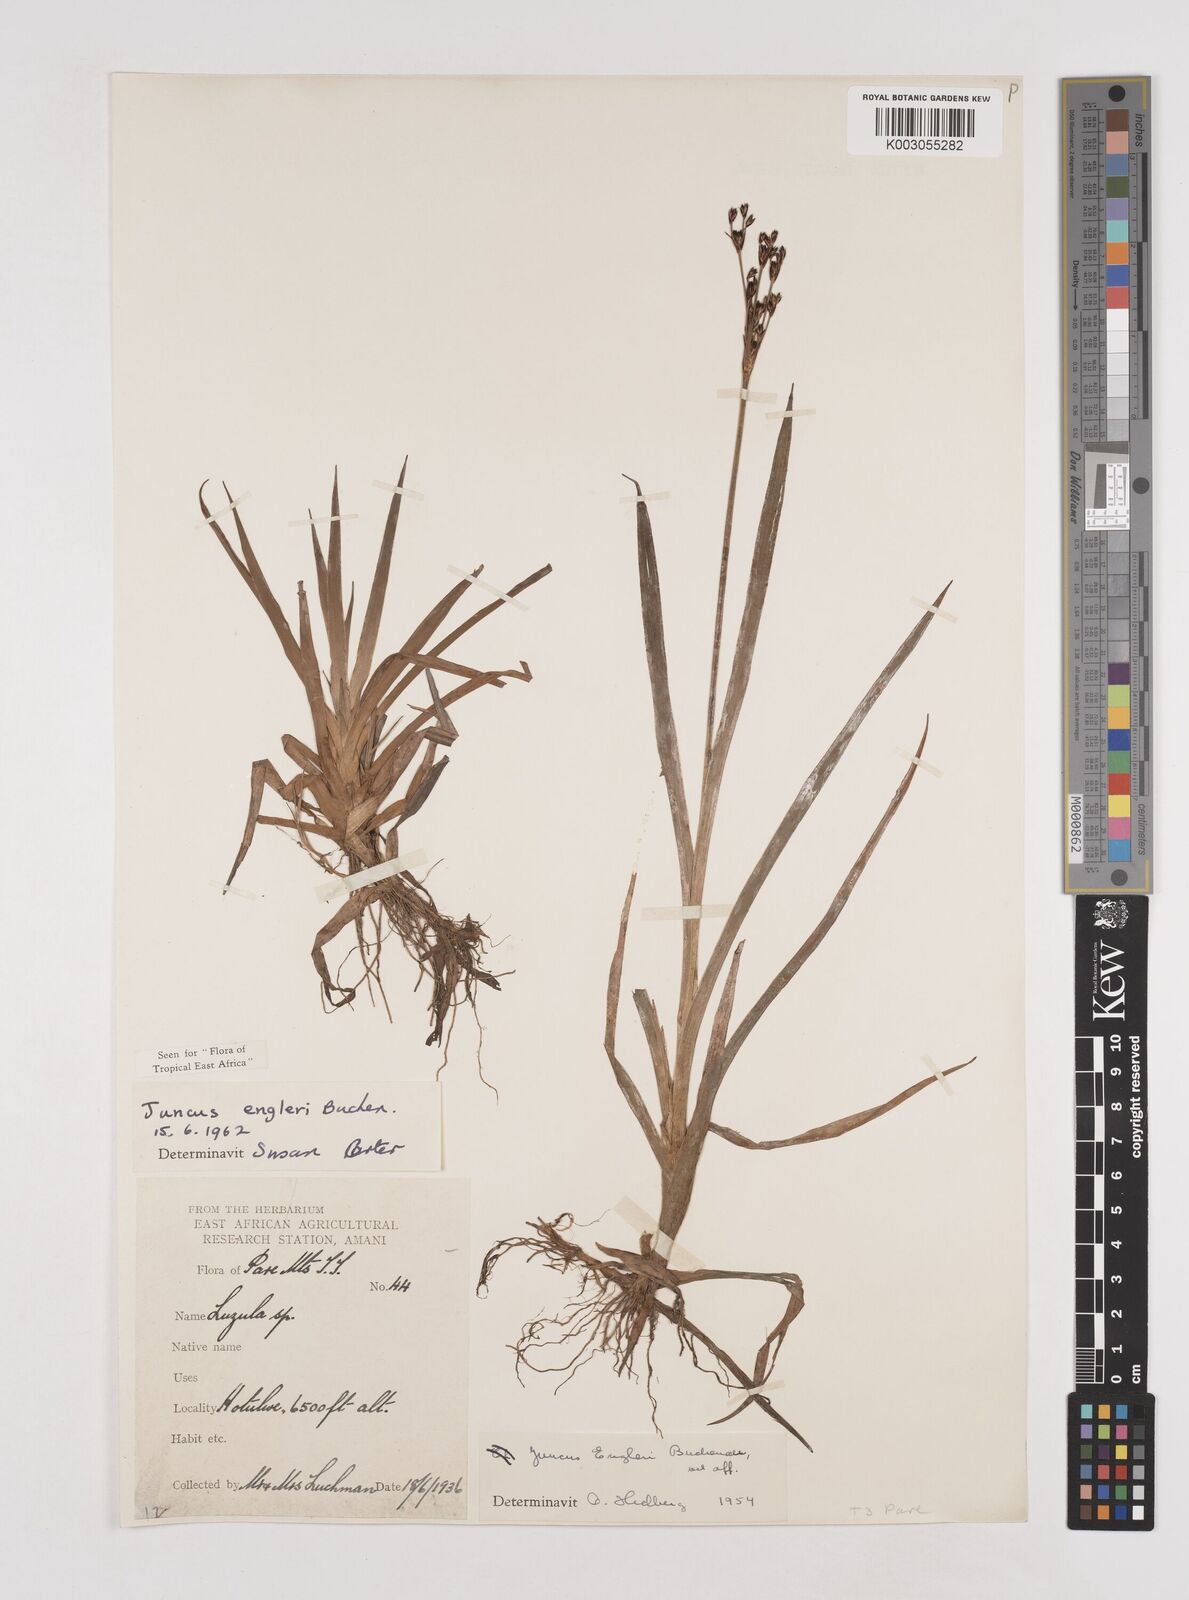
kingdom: Plantae
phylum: Tracheophyta
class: Liliopsida
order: Poales
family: Juncaceae
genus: Juncus
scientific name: Juncus engleri
